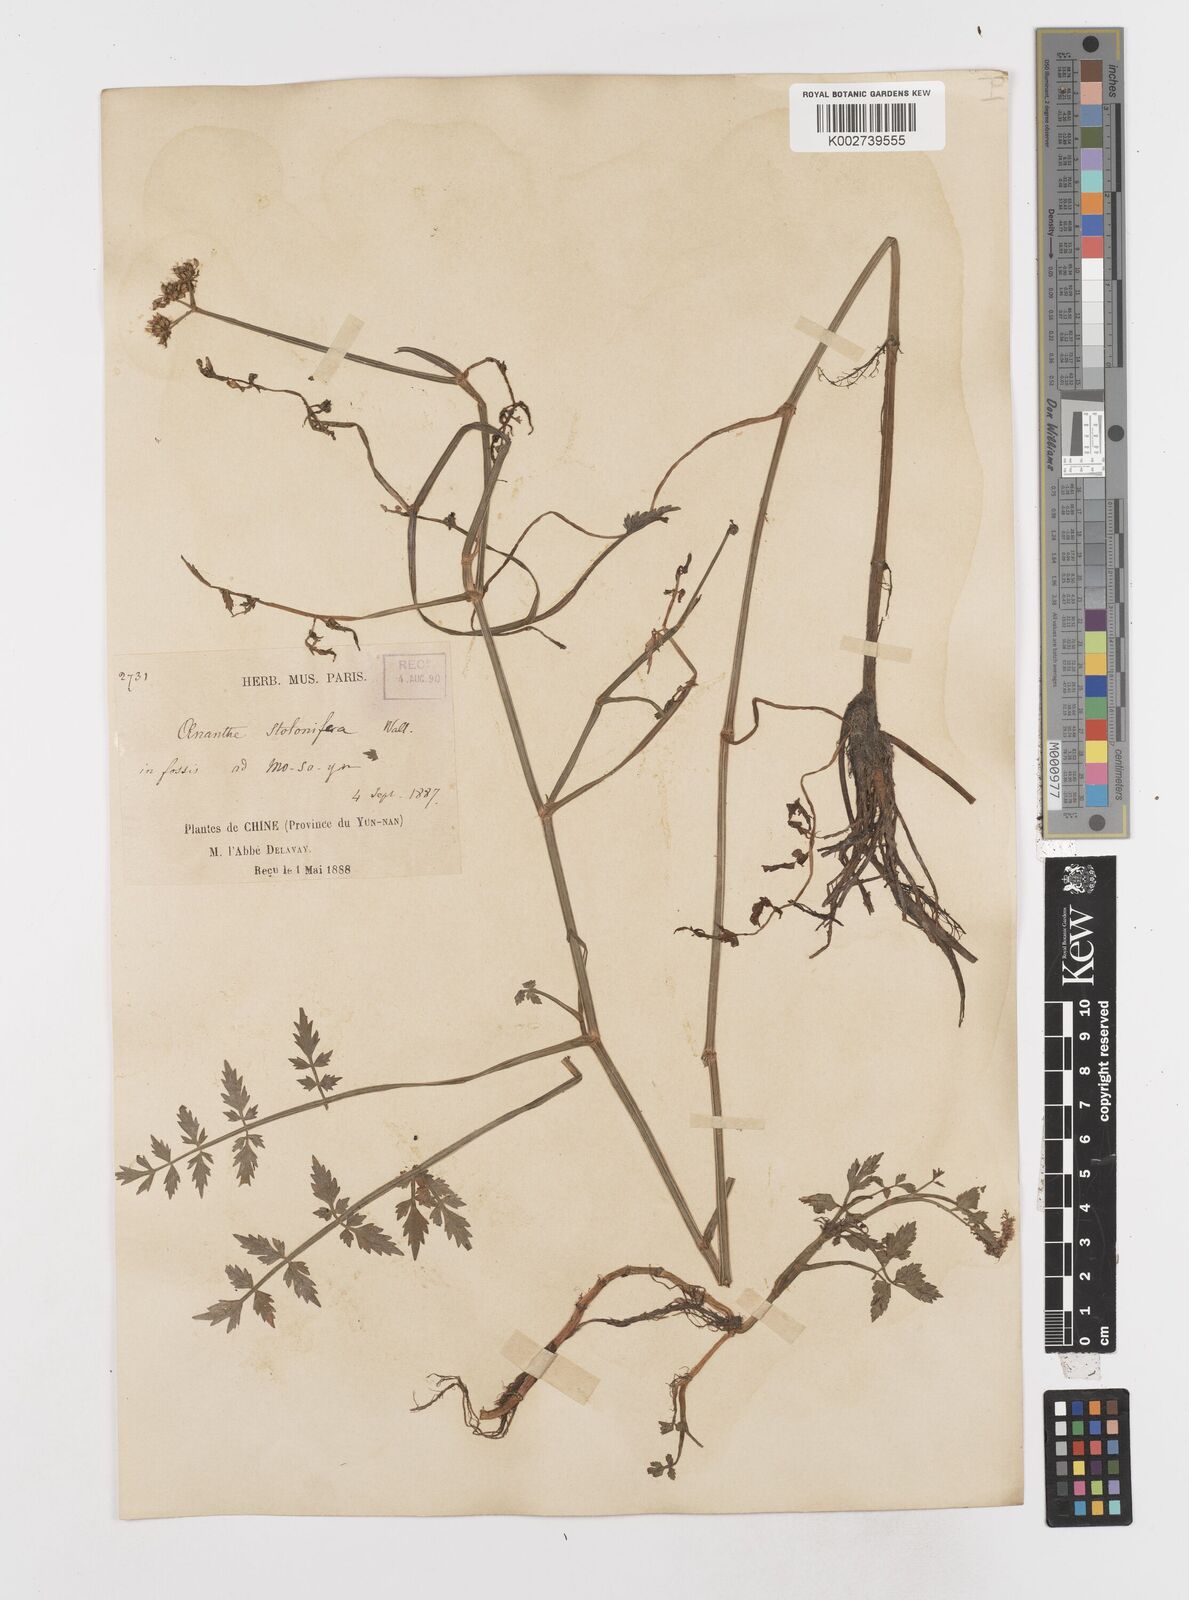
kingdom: Plantae
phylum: Tracheophyta
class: Magnoliopsida
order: Apiales
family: Apiaceae
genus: Oenanthe
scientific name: Oenanthe javanica
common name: Java water-dropwort
